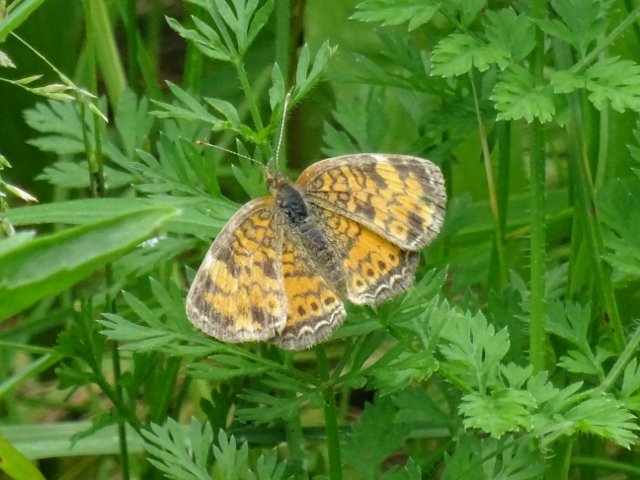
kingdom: Animalia
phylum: Arthropoda
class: Insecta
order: Lepidoptera
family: Nymphalidae
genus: Phyciodes
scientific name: Phyciodes tharos
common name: Northern Crescent
